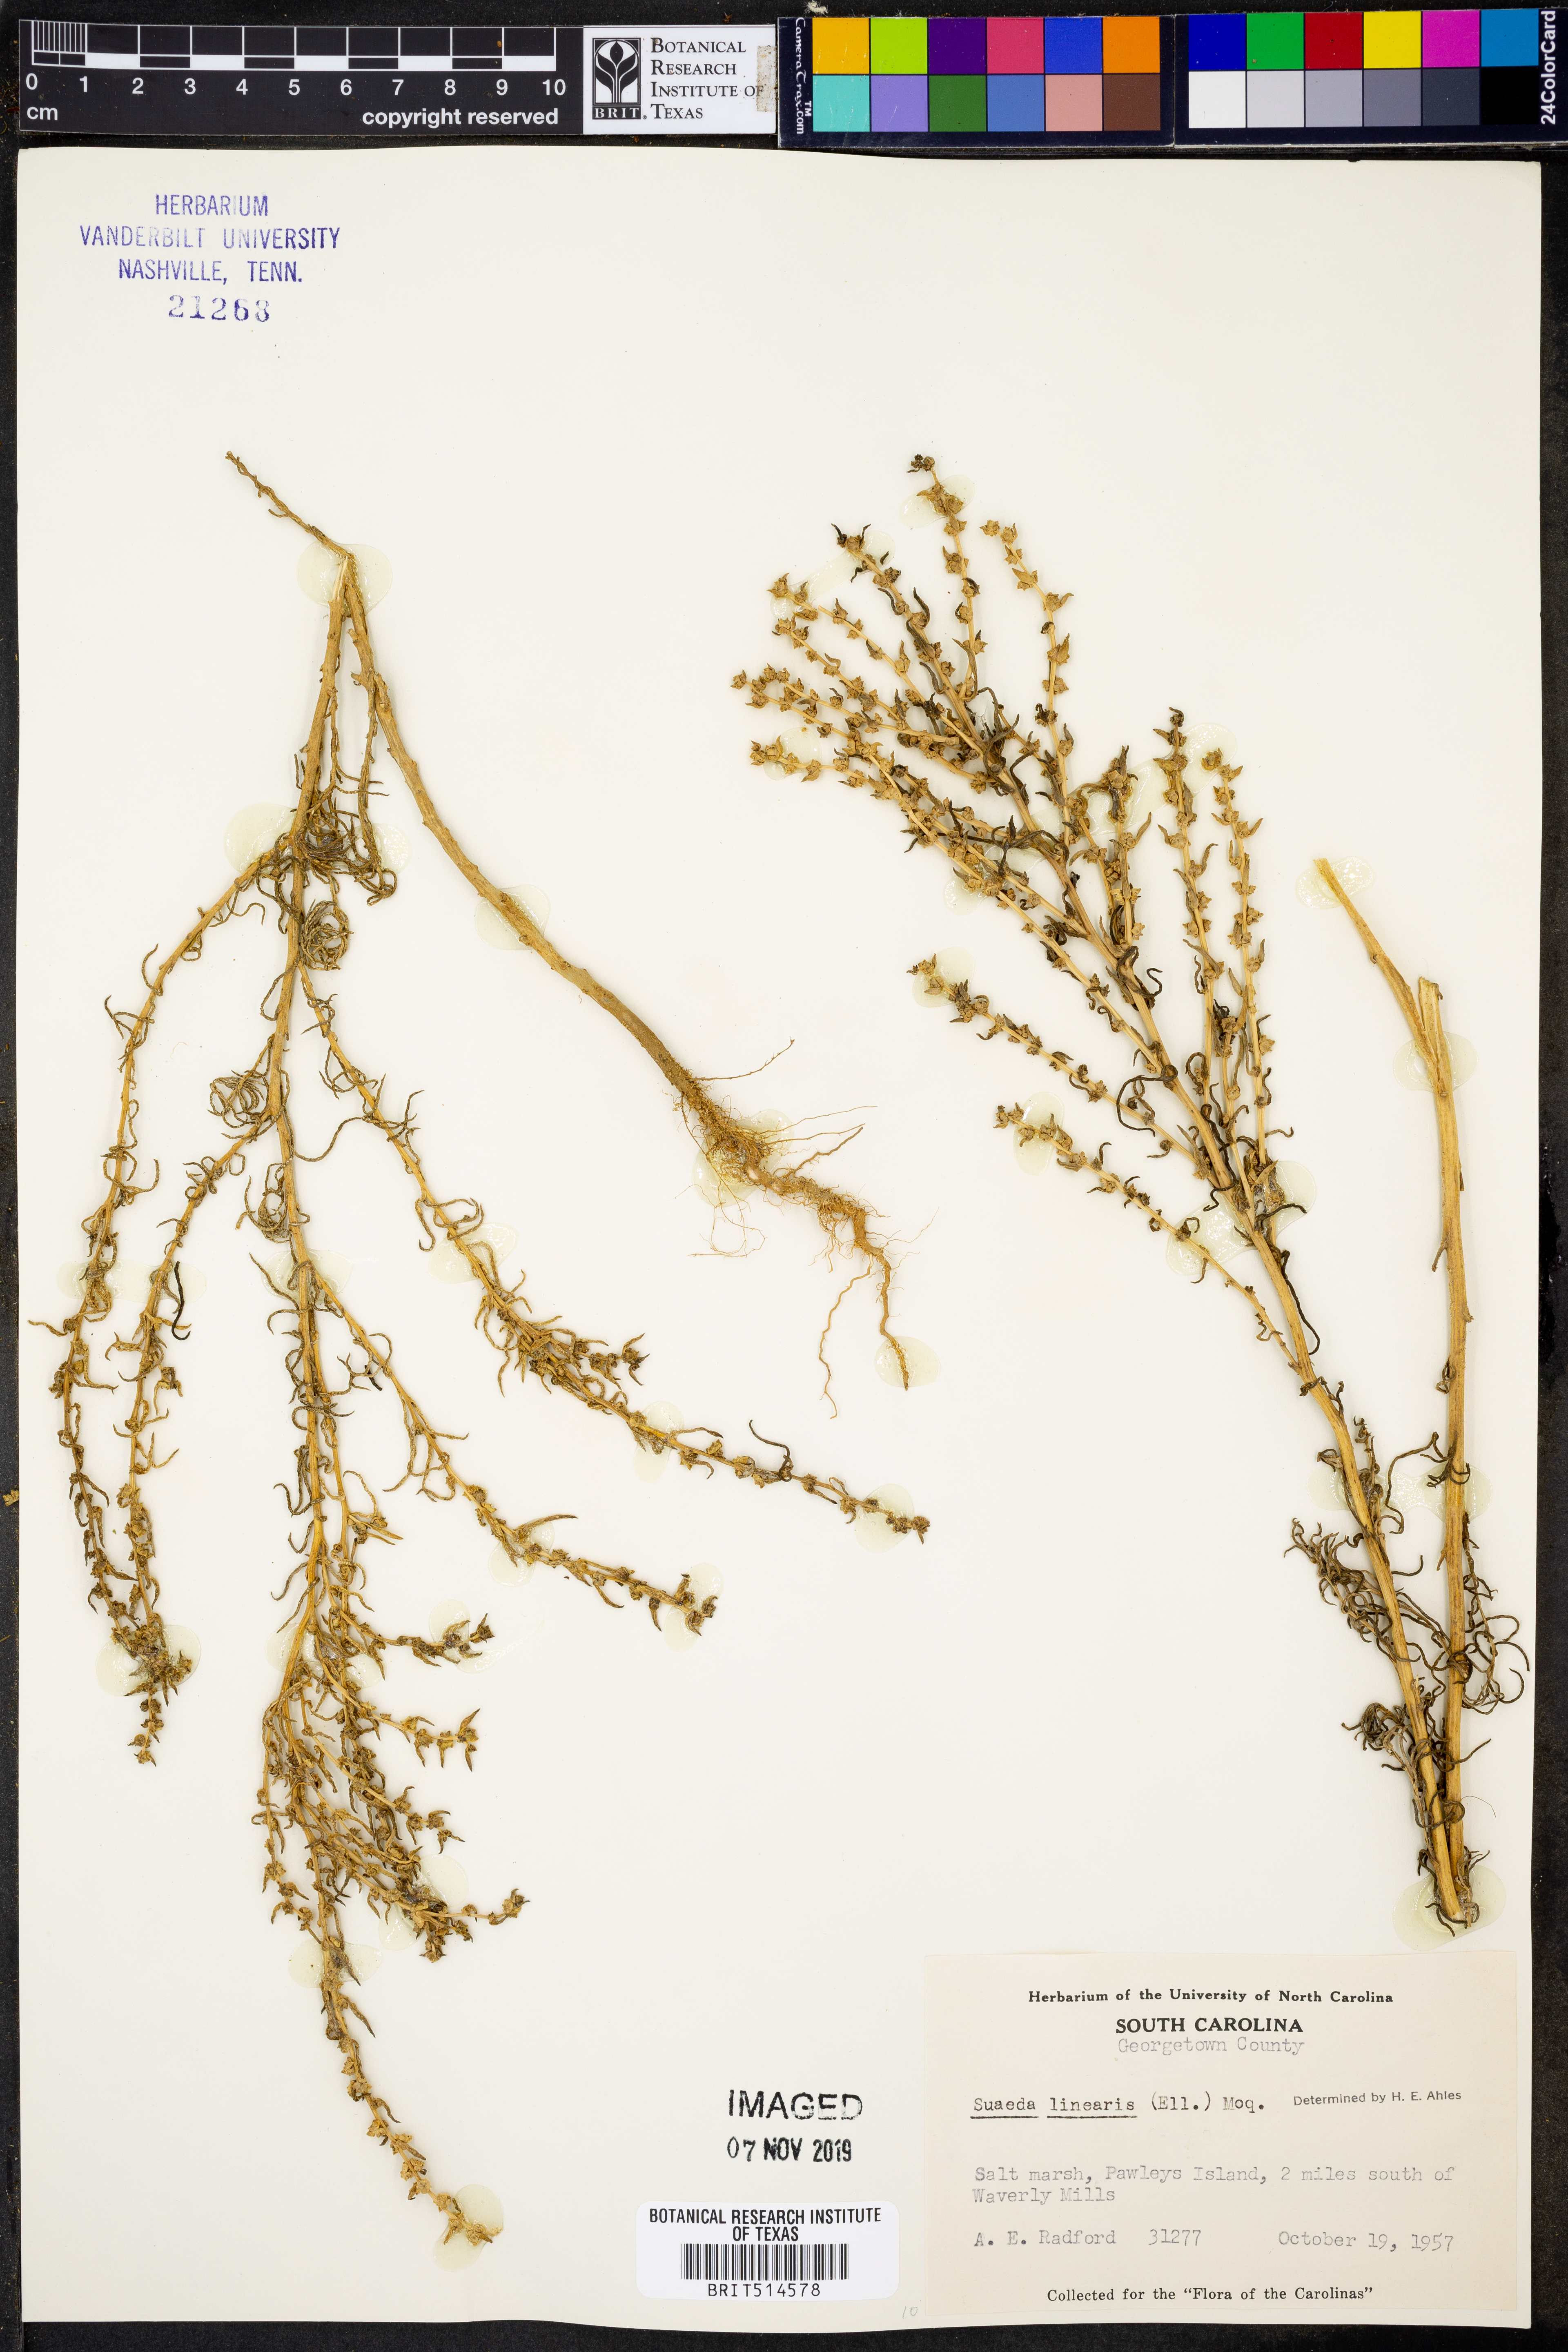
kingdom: Plantae
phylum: Tracheophyta
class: Magnoliopsida
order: Caryophyllales
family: Amaranthaceae
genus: Suaeda
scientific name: Suaeda linearis
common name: Annual seepweed
